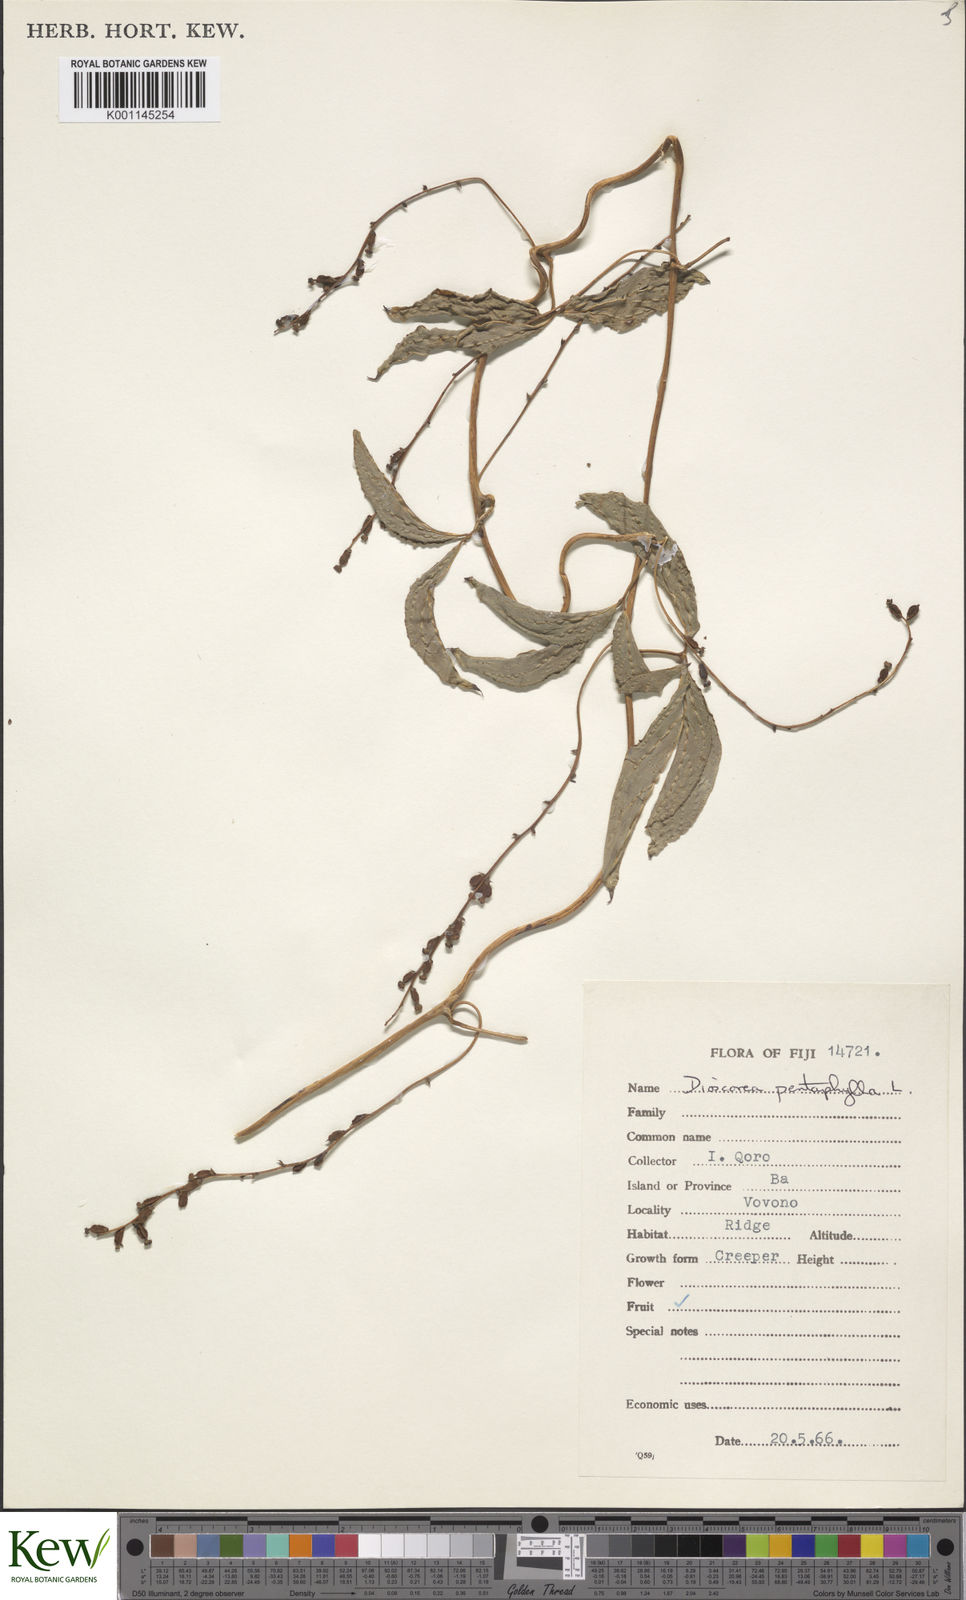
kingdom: Plantae
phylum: Tracheophyta
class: Liliopsida
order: Dioscoreales
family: Dioscoreaceae
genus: Dioscorea
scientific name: Dioscorea pentaphylla
